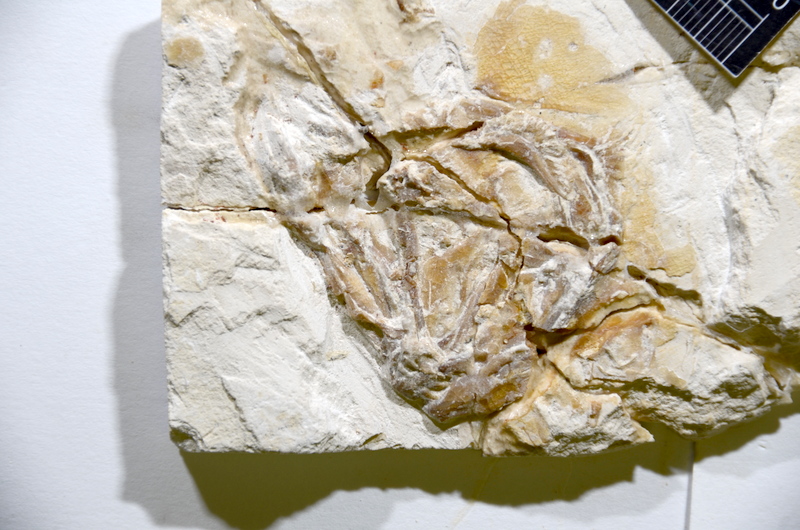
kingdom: Animalia
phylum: Chordata
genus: Thrissops
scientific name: Thrissops
